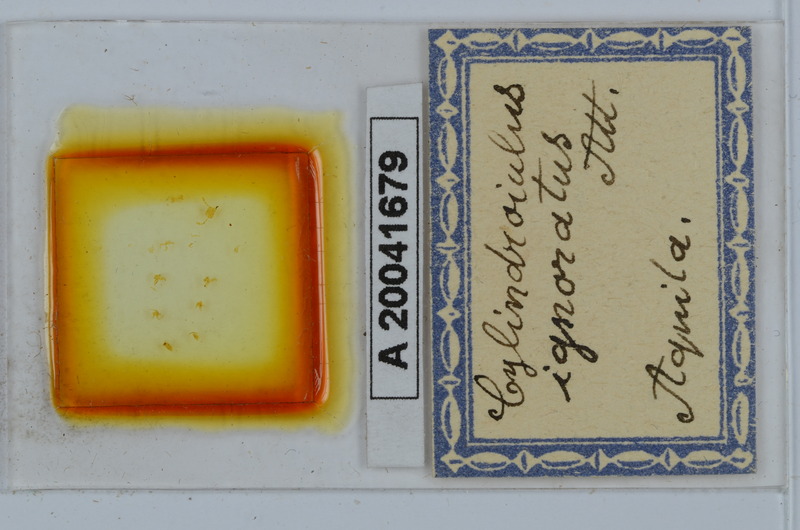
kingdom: Animalia
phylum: Arthropoda
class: Diplopoda
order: Julida
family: Julidae
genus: Cylindroiulus
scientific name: Cylindroiulus parisiorum
